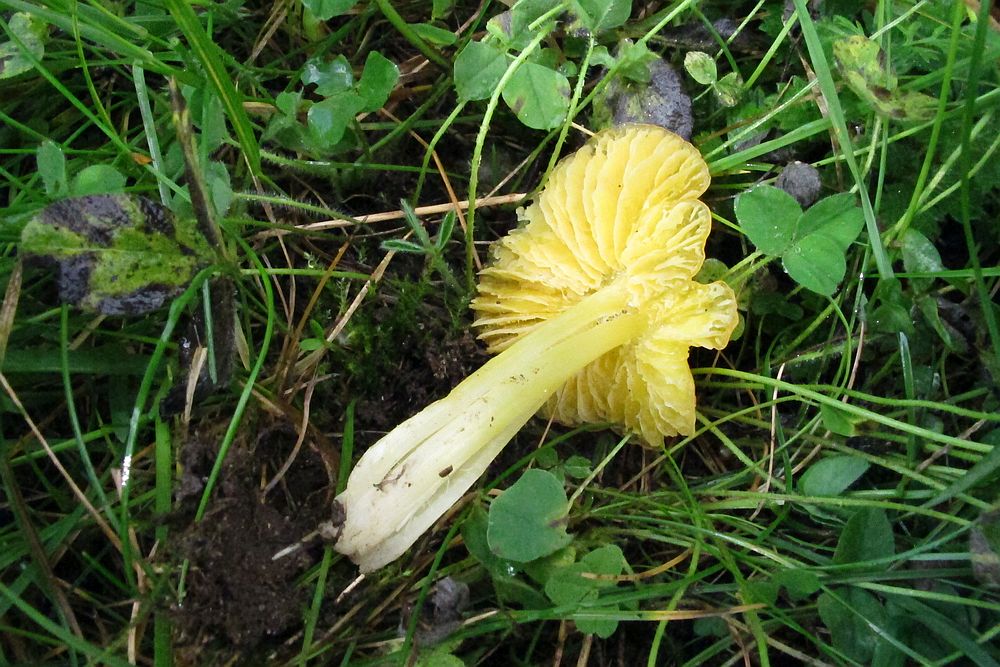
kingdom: Fungi
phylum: Basidiomycota
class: Agaricomycetes
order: Agaricales
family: Hygrophoraceae
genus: Hygrocybe
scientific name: Hygrocybe acutoconica
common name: Konrads vokshat
